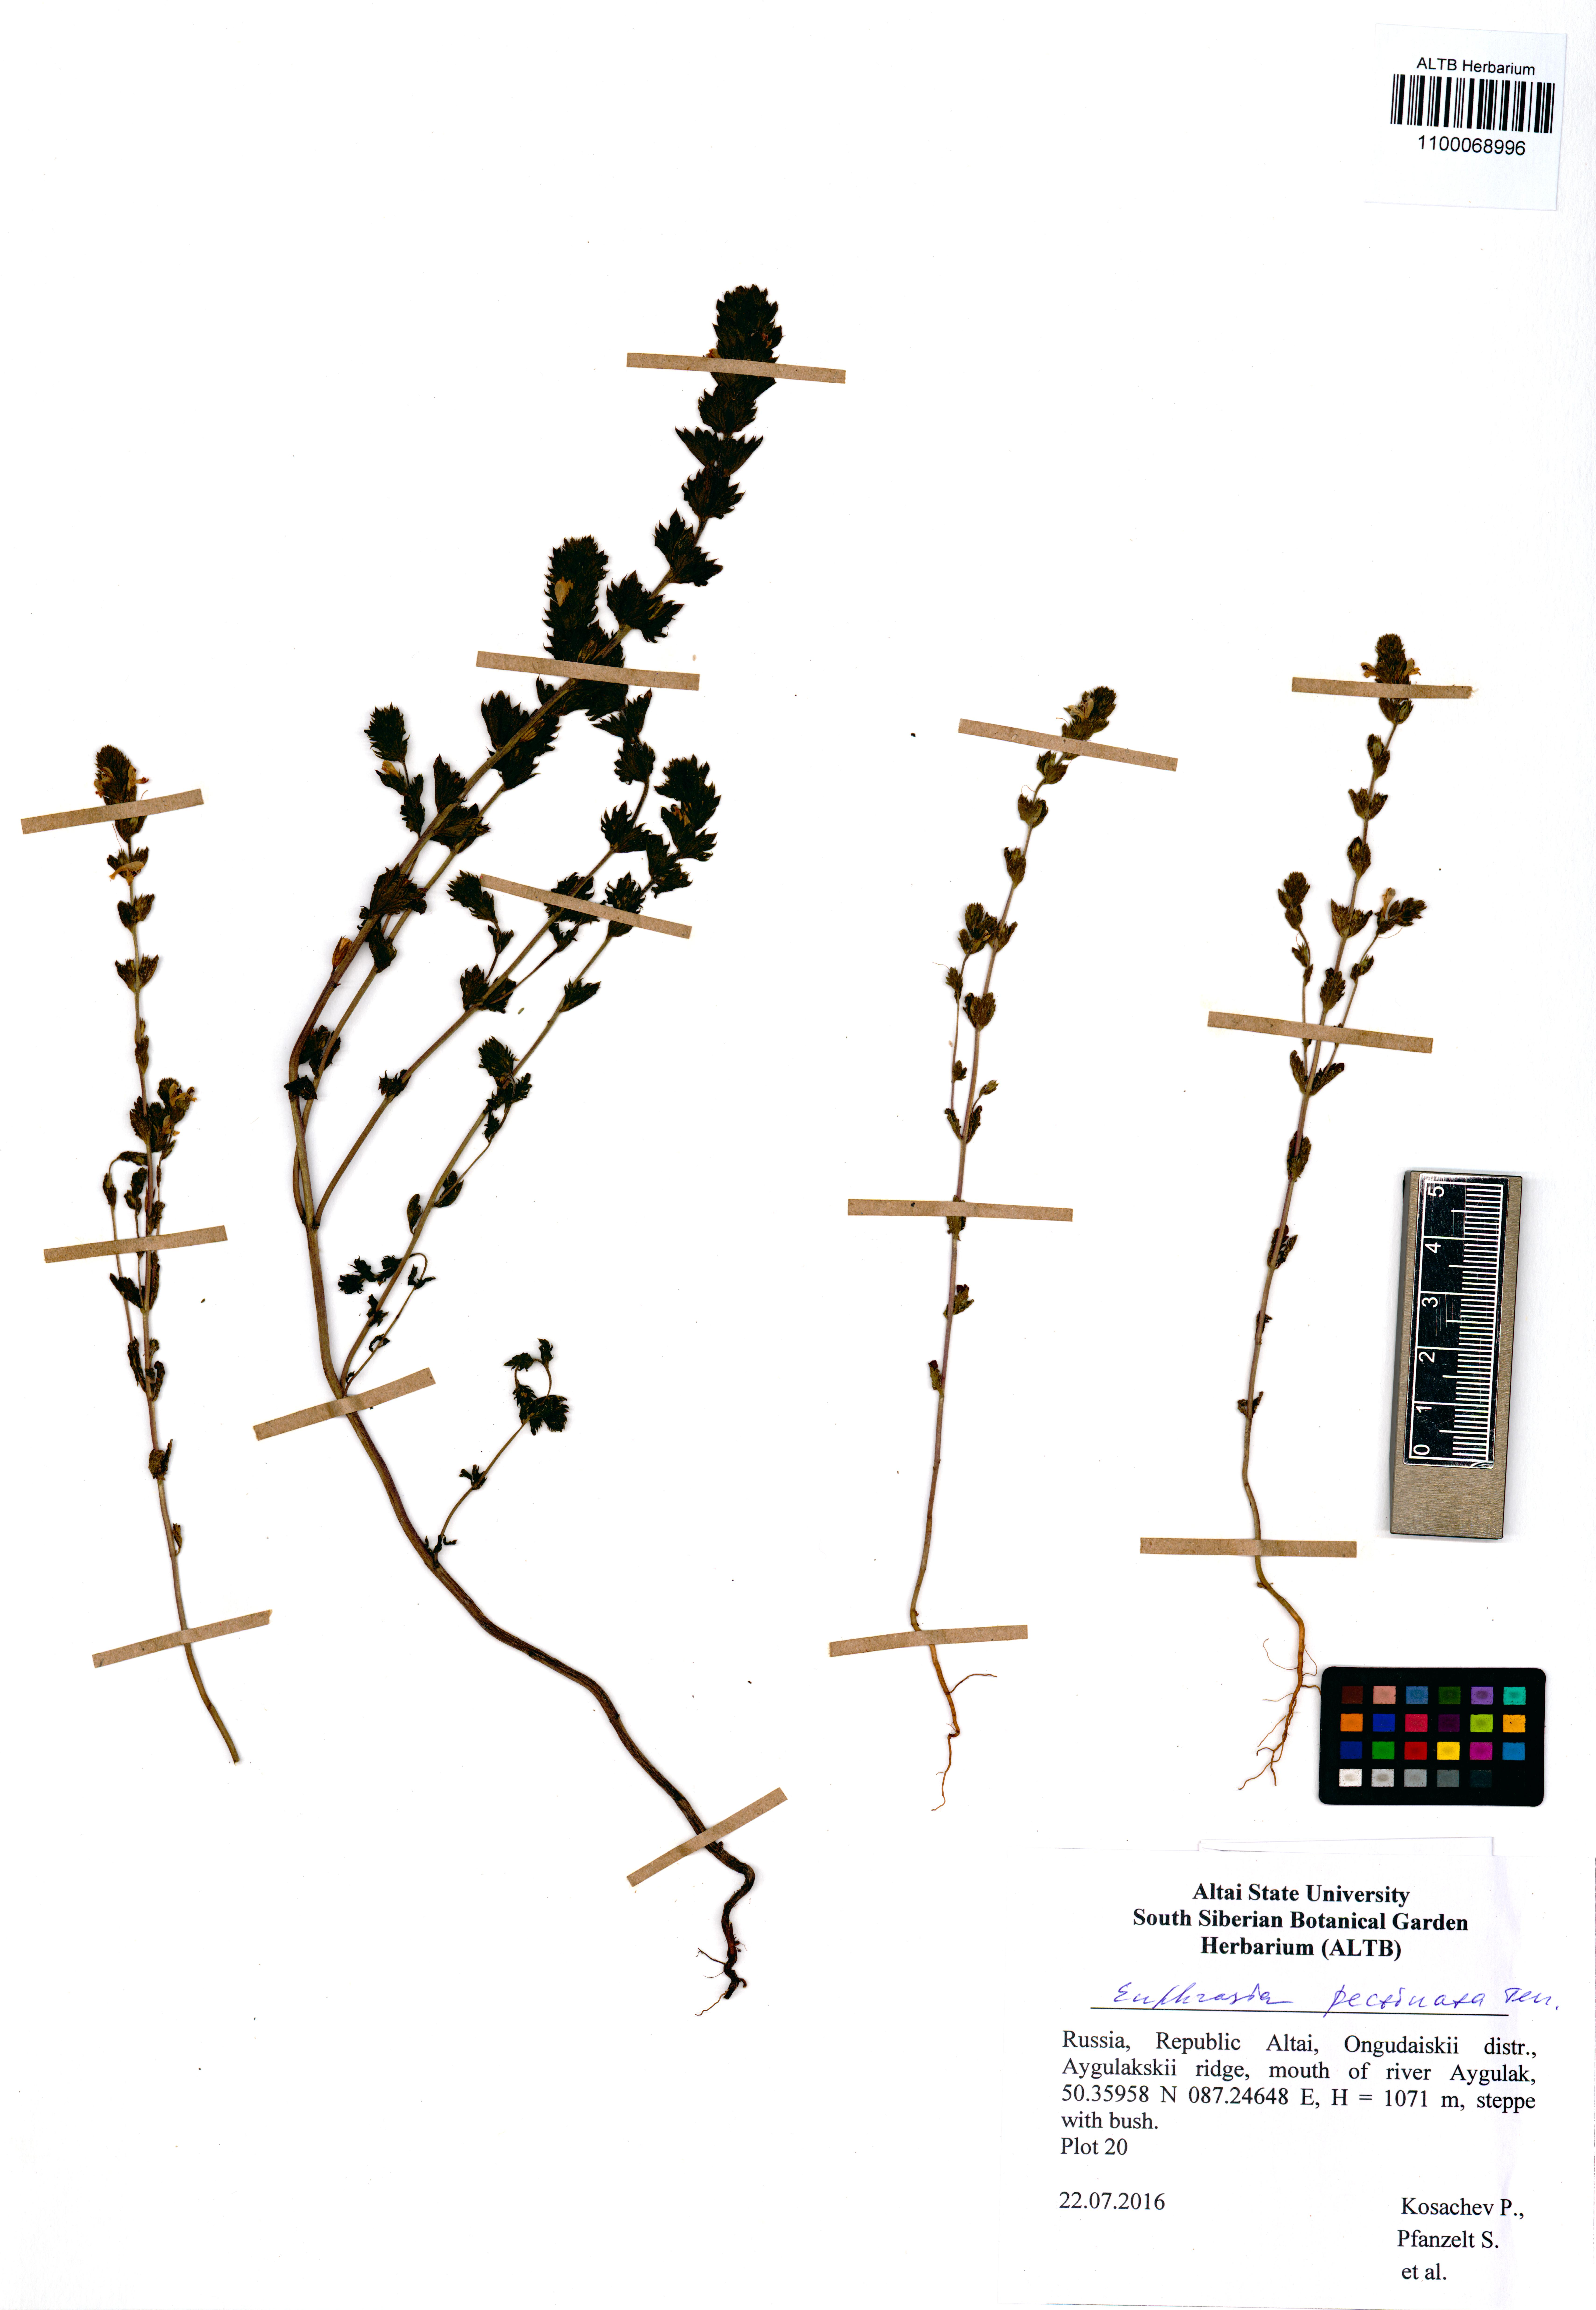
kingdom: Plantae
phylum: Tracheophyta
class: Magnoliopsida
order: Lamiales
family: Orobanchaceae
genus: Euphrasia
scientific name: Euphrasia pectinata
